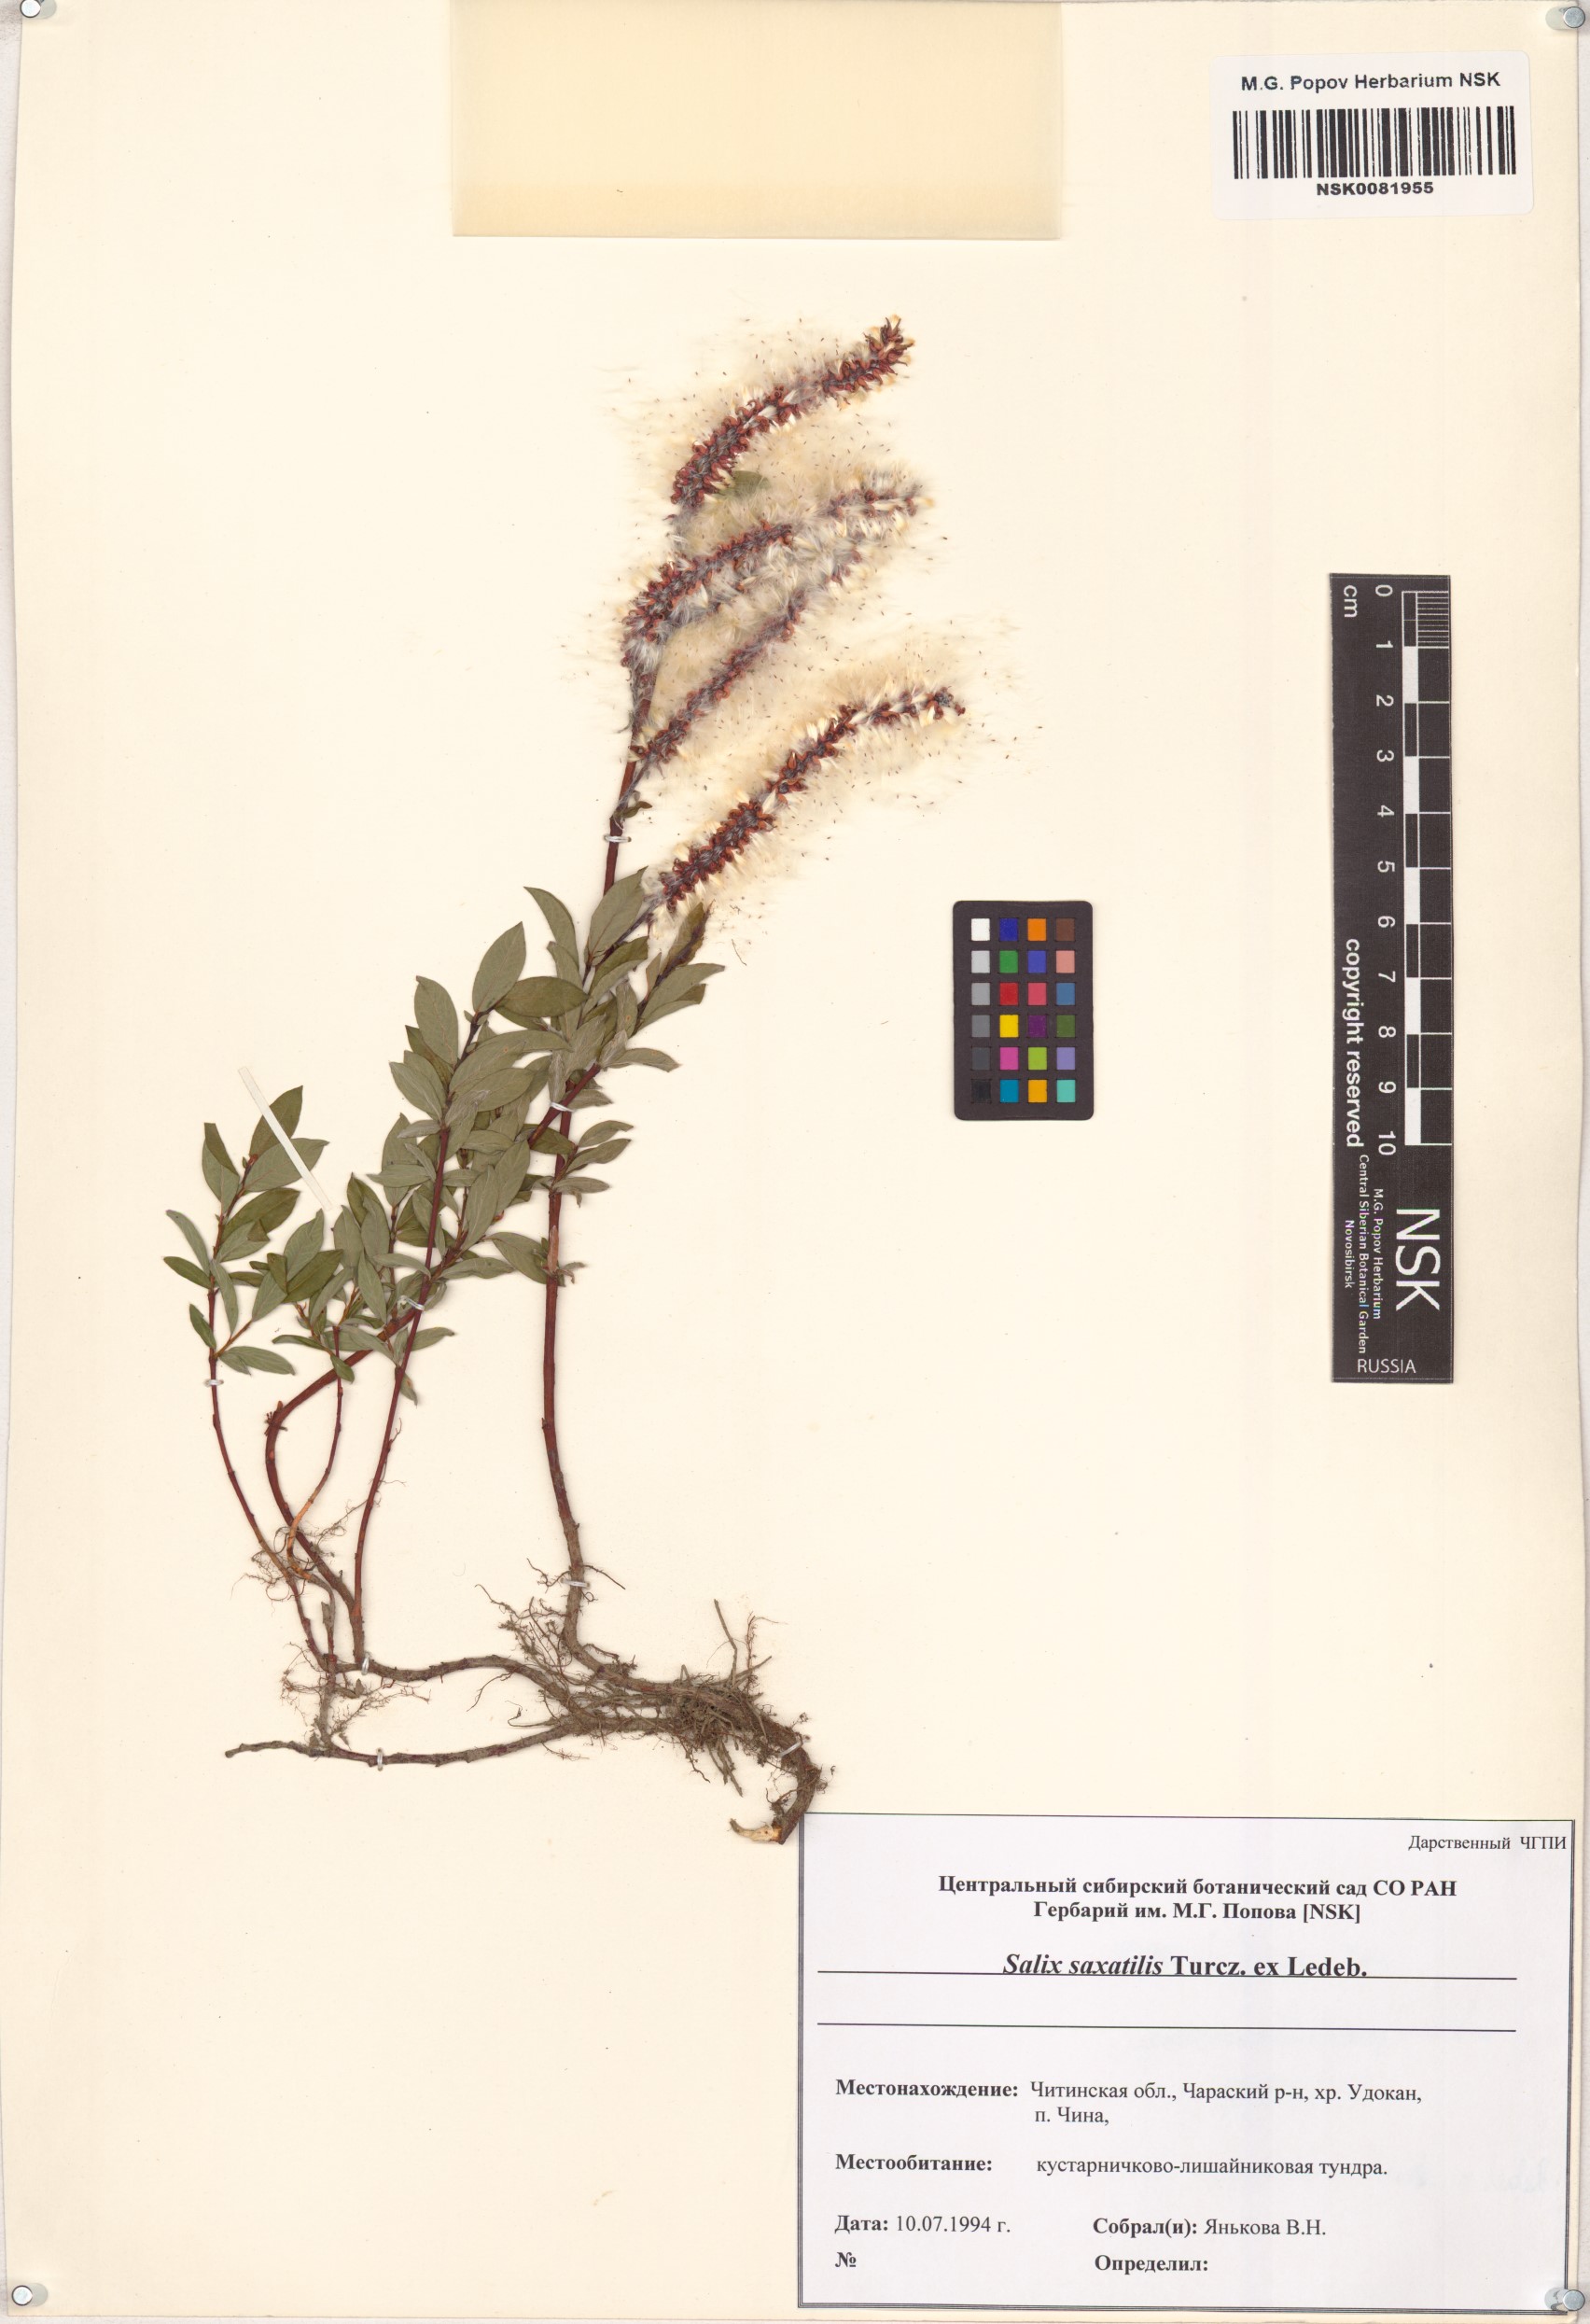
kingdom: Plantae
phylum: Tracheophyta
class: Magnoliopsida
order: Malpighiales
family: Salicaceae
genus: Salix
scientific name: Salix saxatilis
